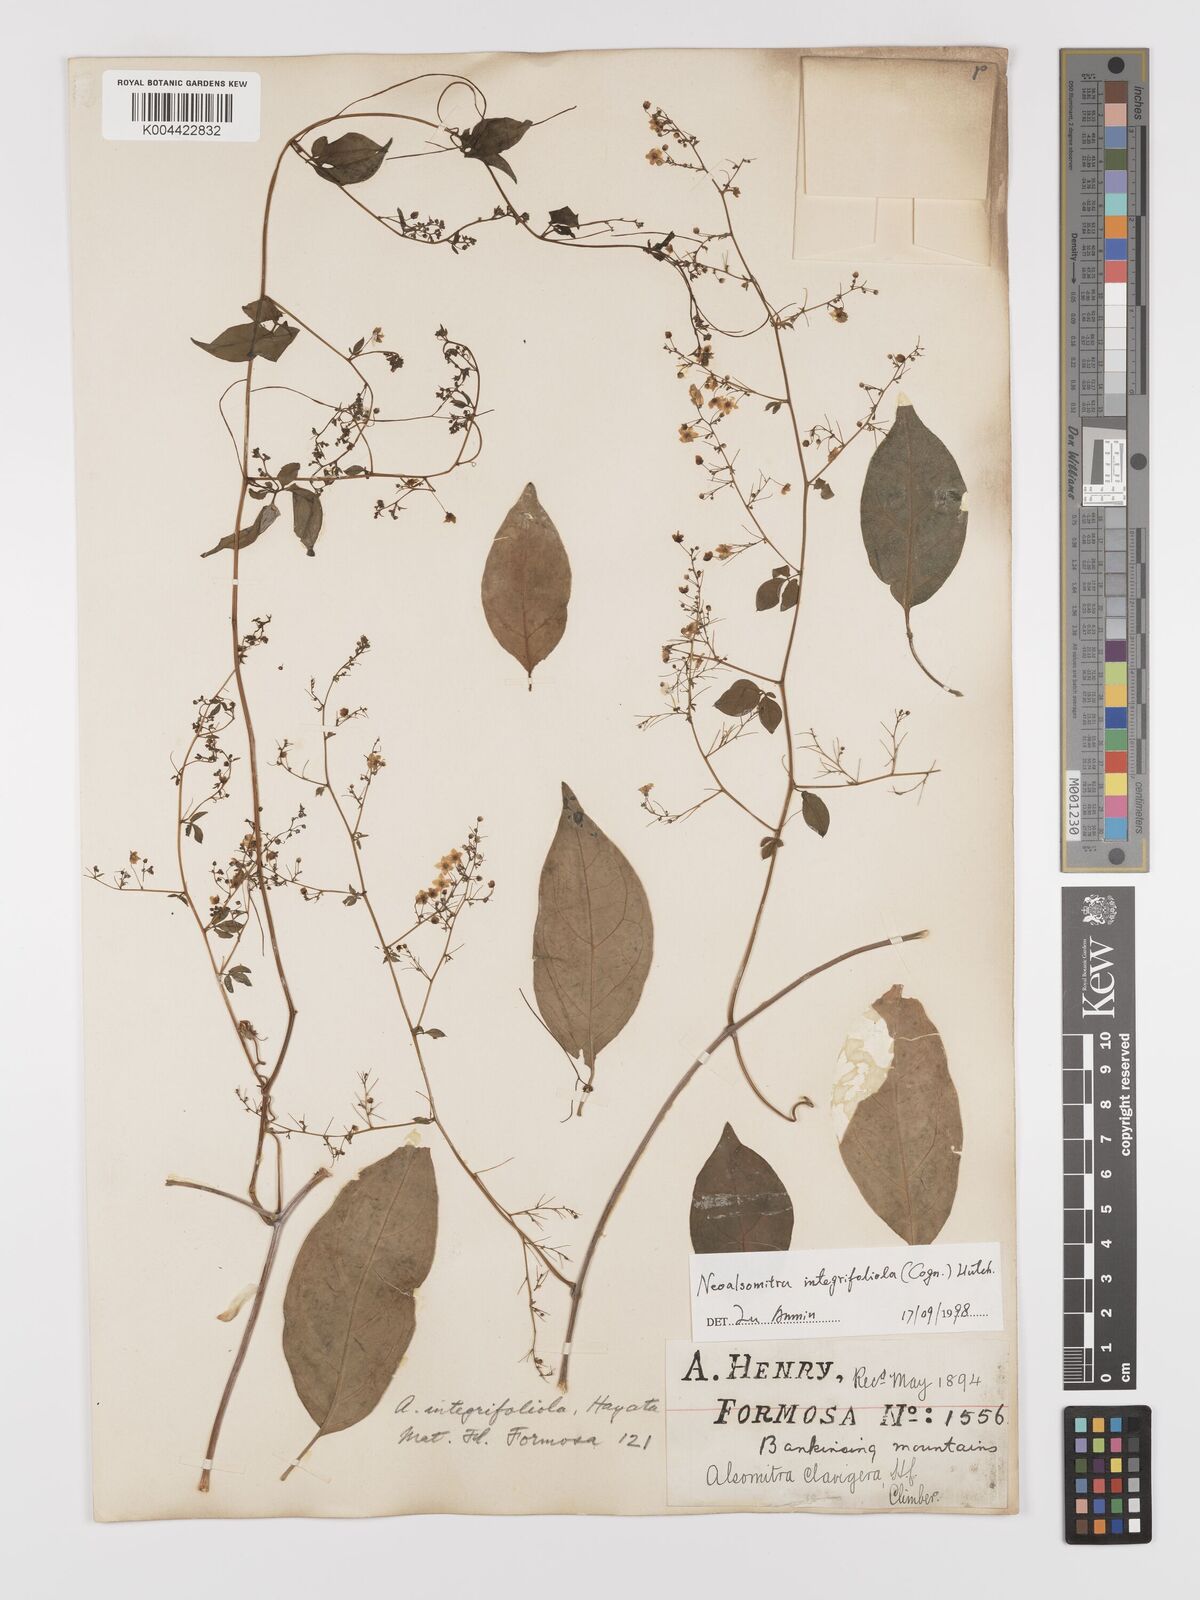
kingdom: Plantae
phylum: Tracheophyta
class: Magnoliopsida
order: Cucurbitales
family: Cucurbitaceae
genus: Neoalsomitra
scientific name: Neoalsomitra clavigera
